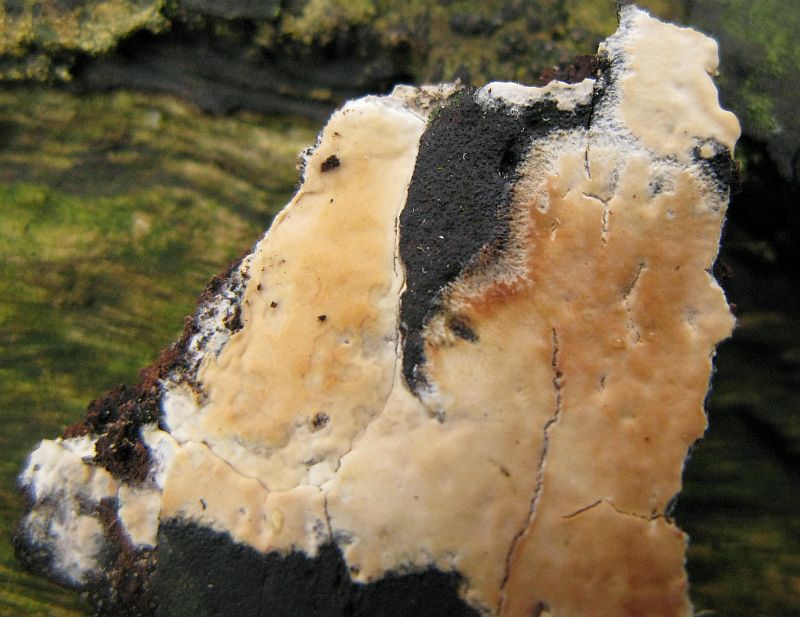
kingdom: Fungi
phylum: Basidiomycota
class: Agaricomycetes
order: Agaricales
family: Radulomycetaceae
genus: Radulomyces
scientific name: Radulomyces confluens
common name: glat naftalinskind
